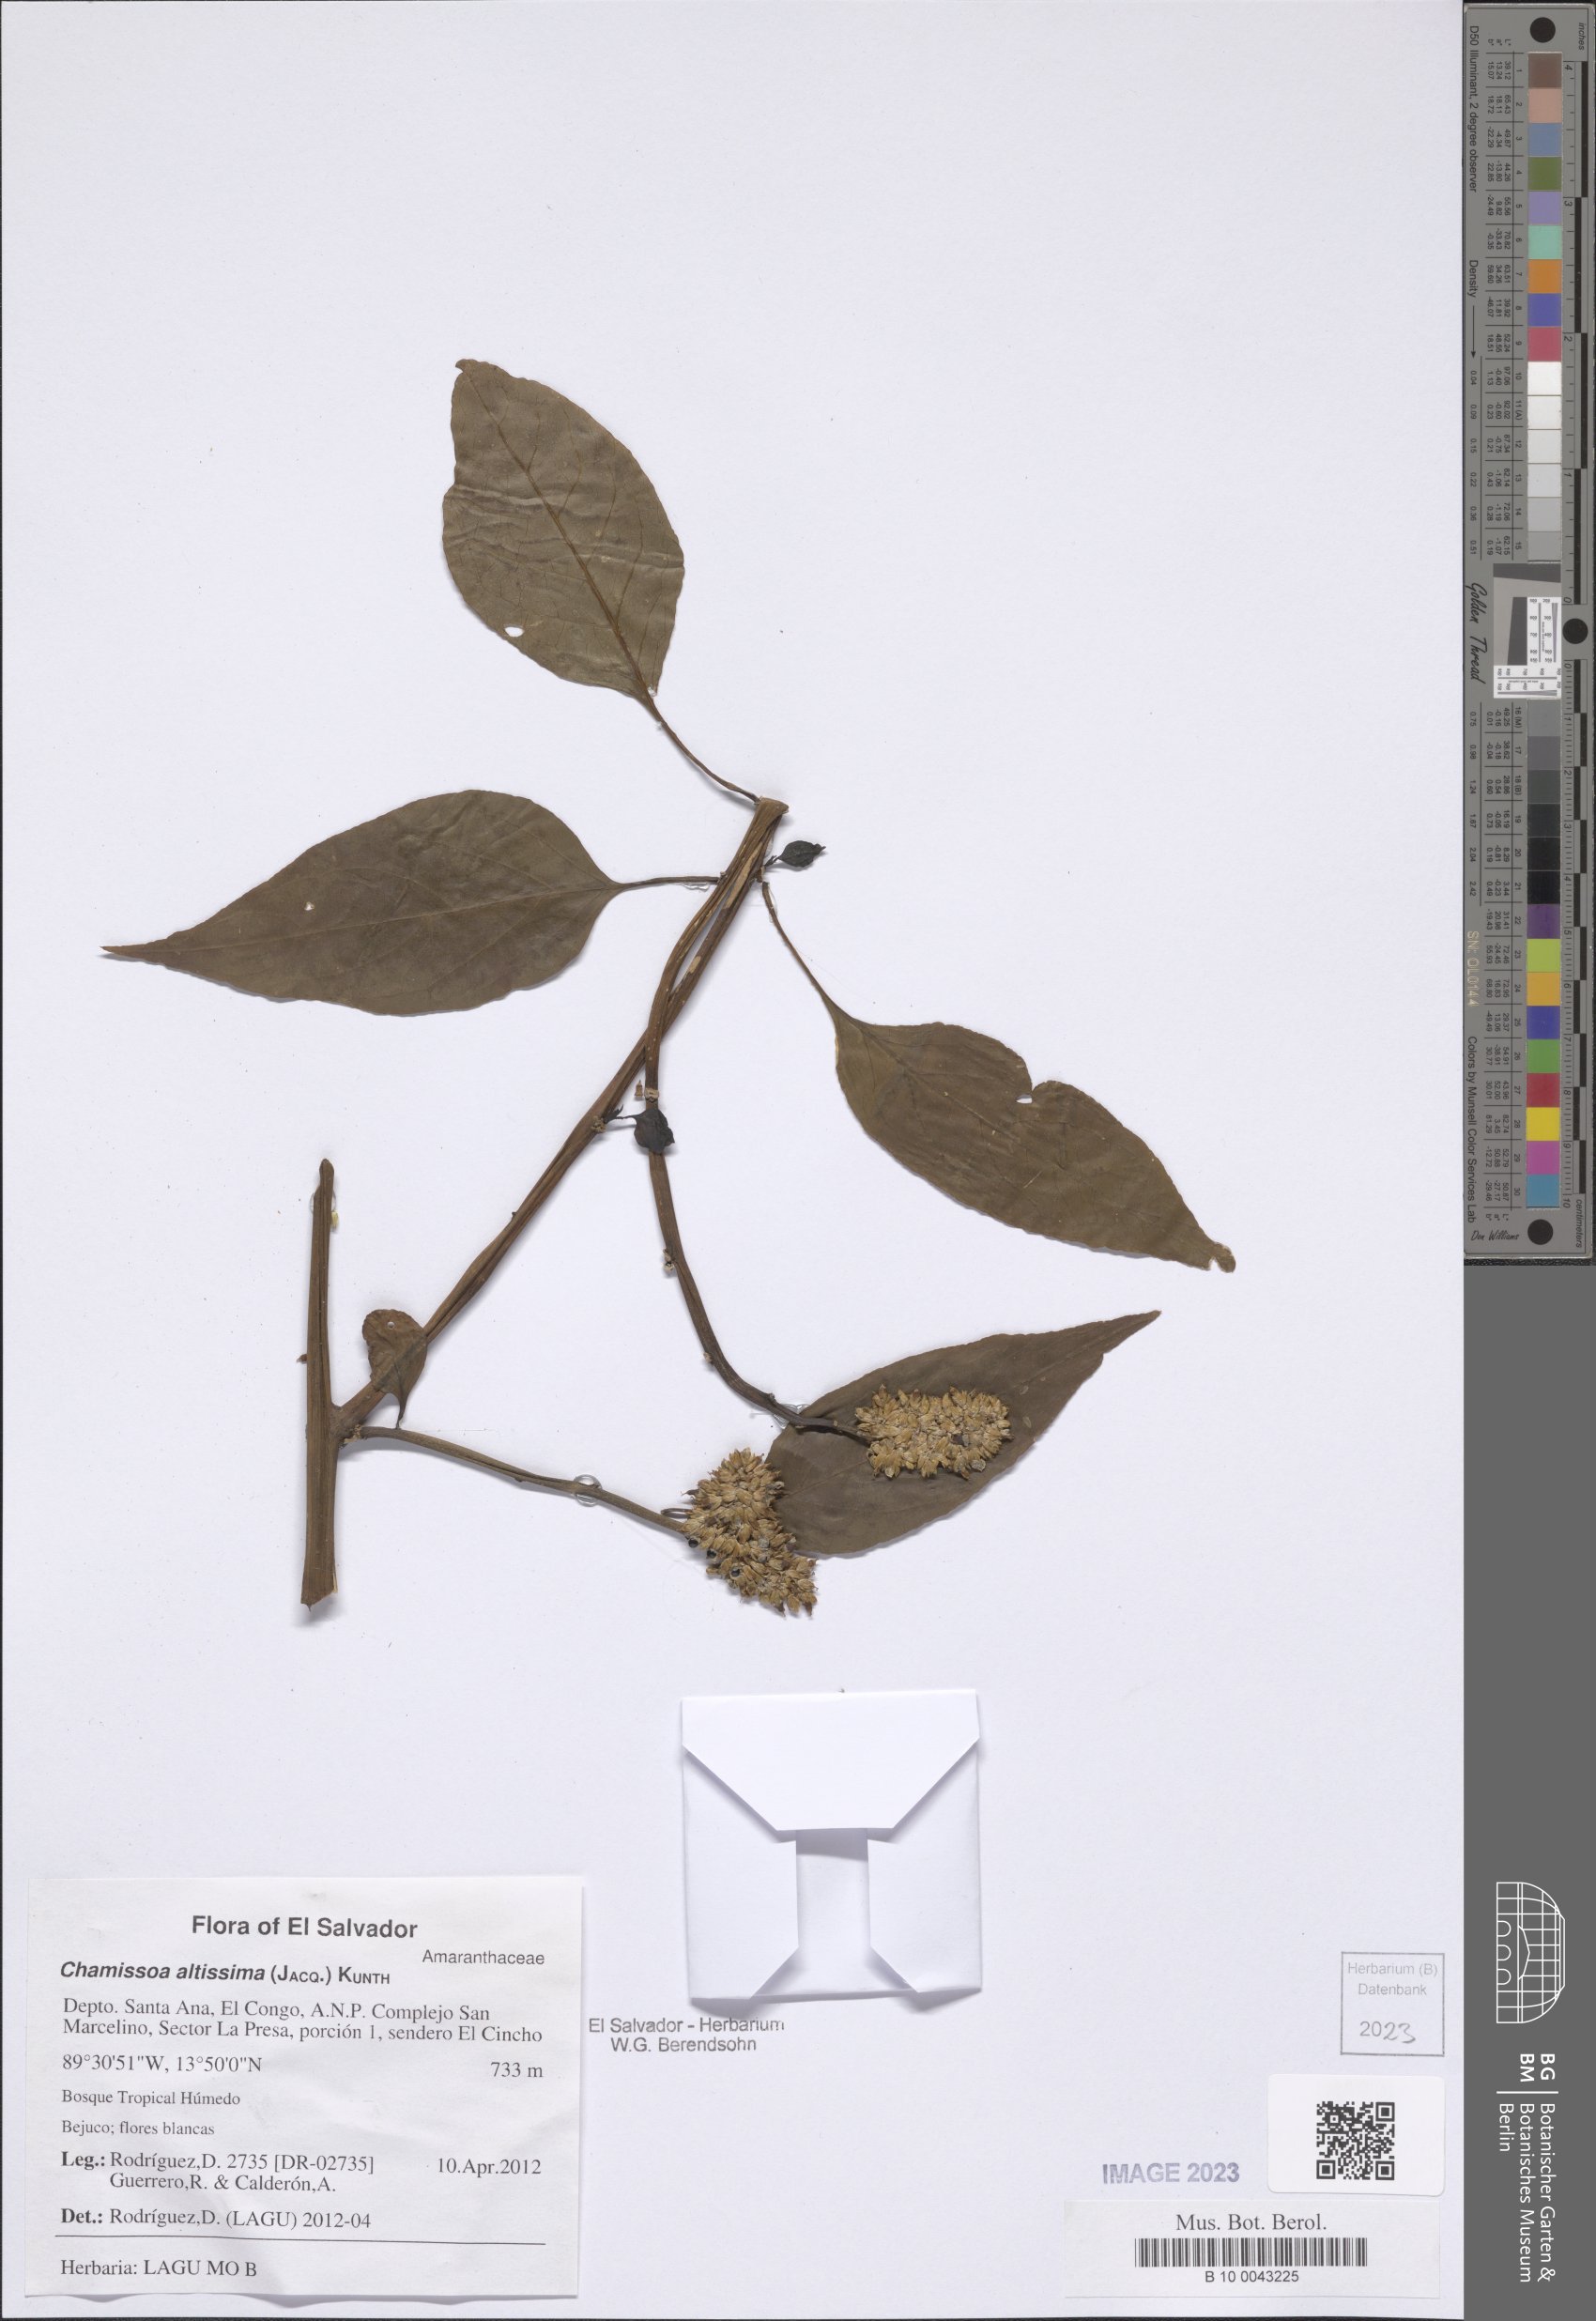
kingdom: Plantae
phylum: Tracheophyta
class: Magnoliopsida
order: Caryophyllales
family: Amaranthaceae
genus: Chamissoa
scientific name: Chamissoa altissima
